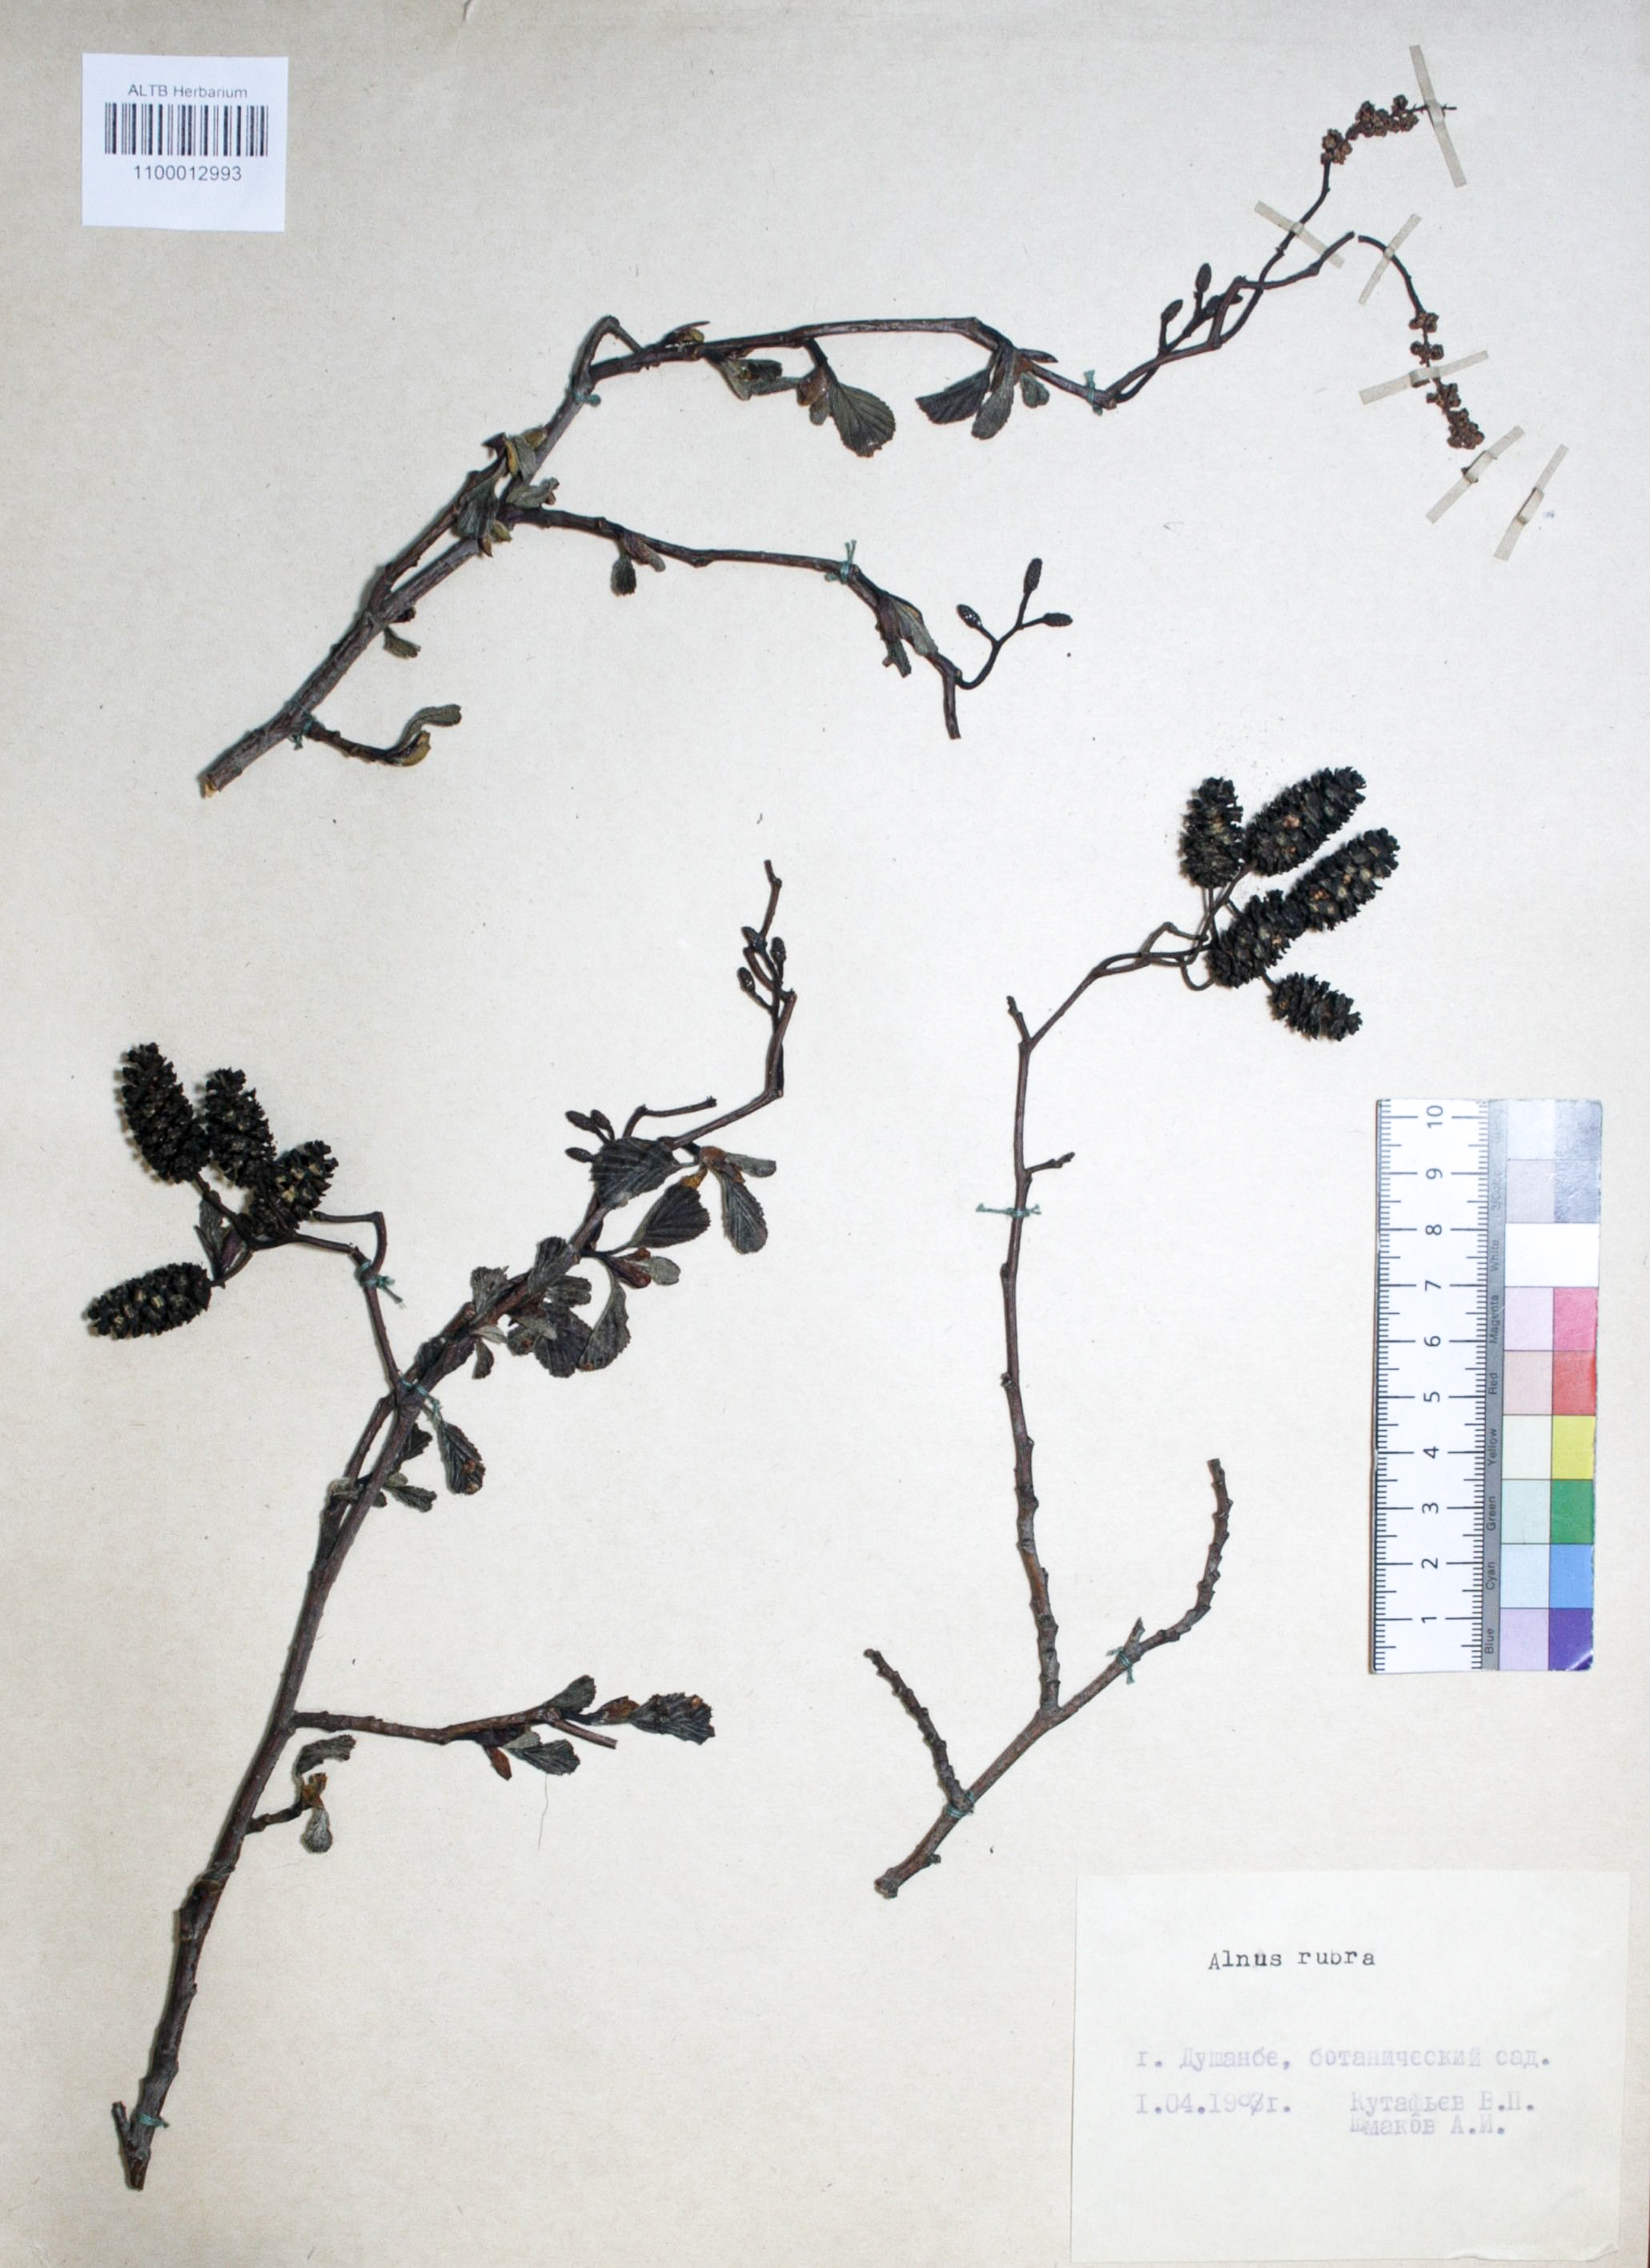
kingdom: Plantae
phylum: Tracheophyta
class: Magnoliopsida
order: Fagales
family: Betulaceae
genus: Alnus
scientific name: Alnus rubra
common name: Red alder
